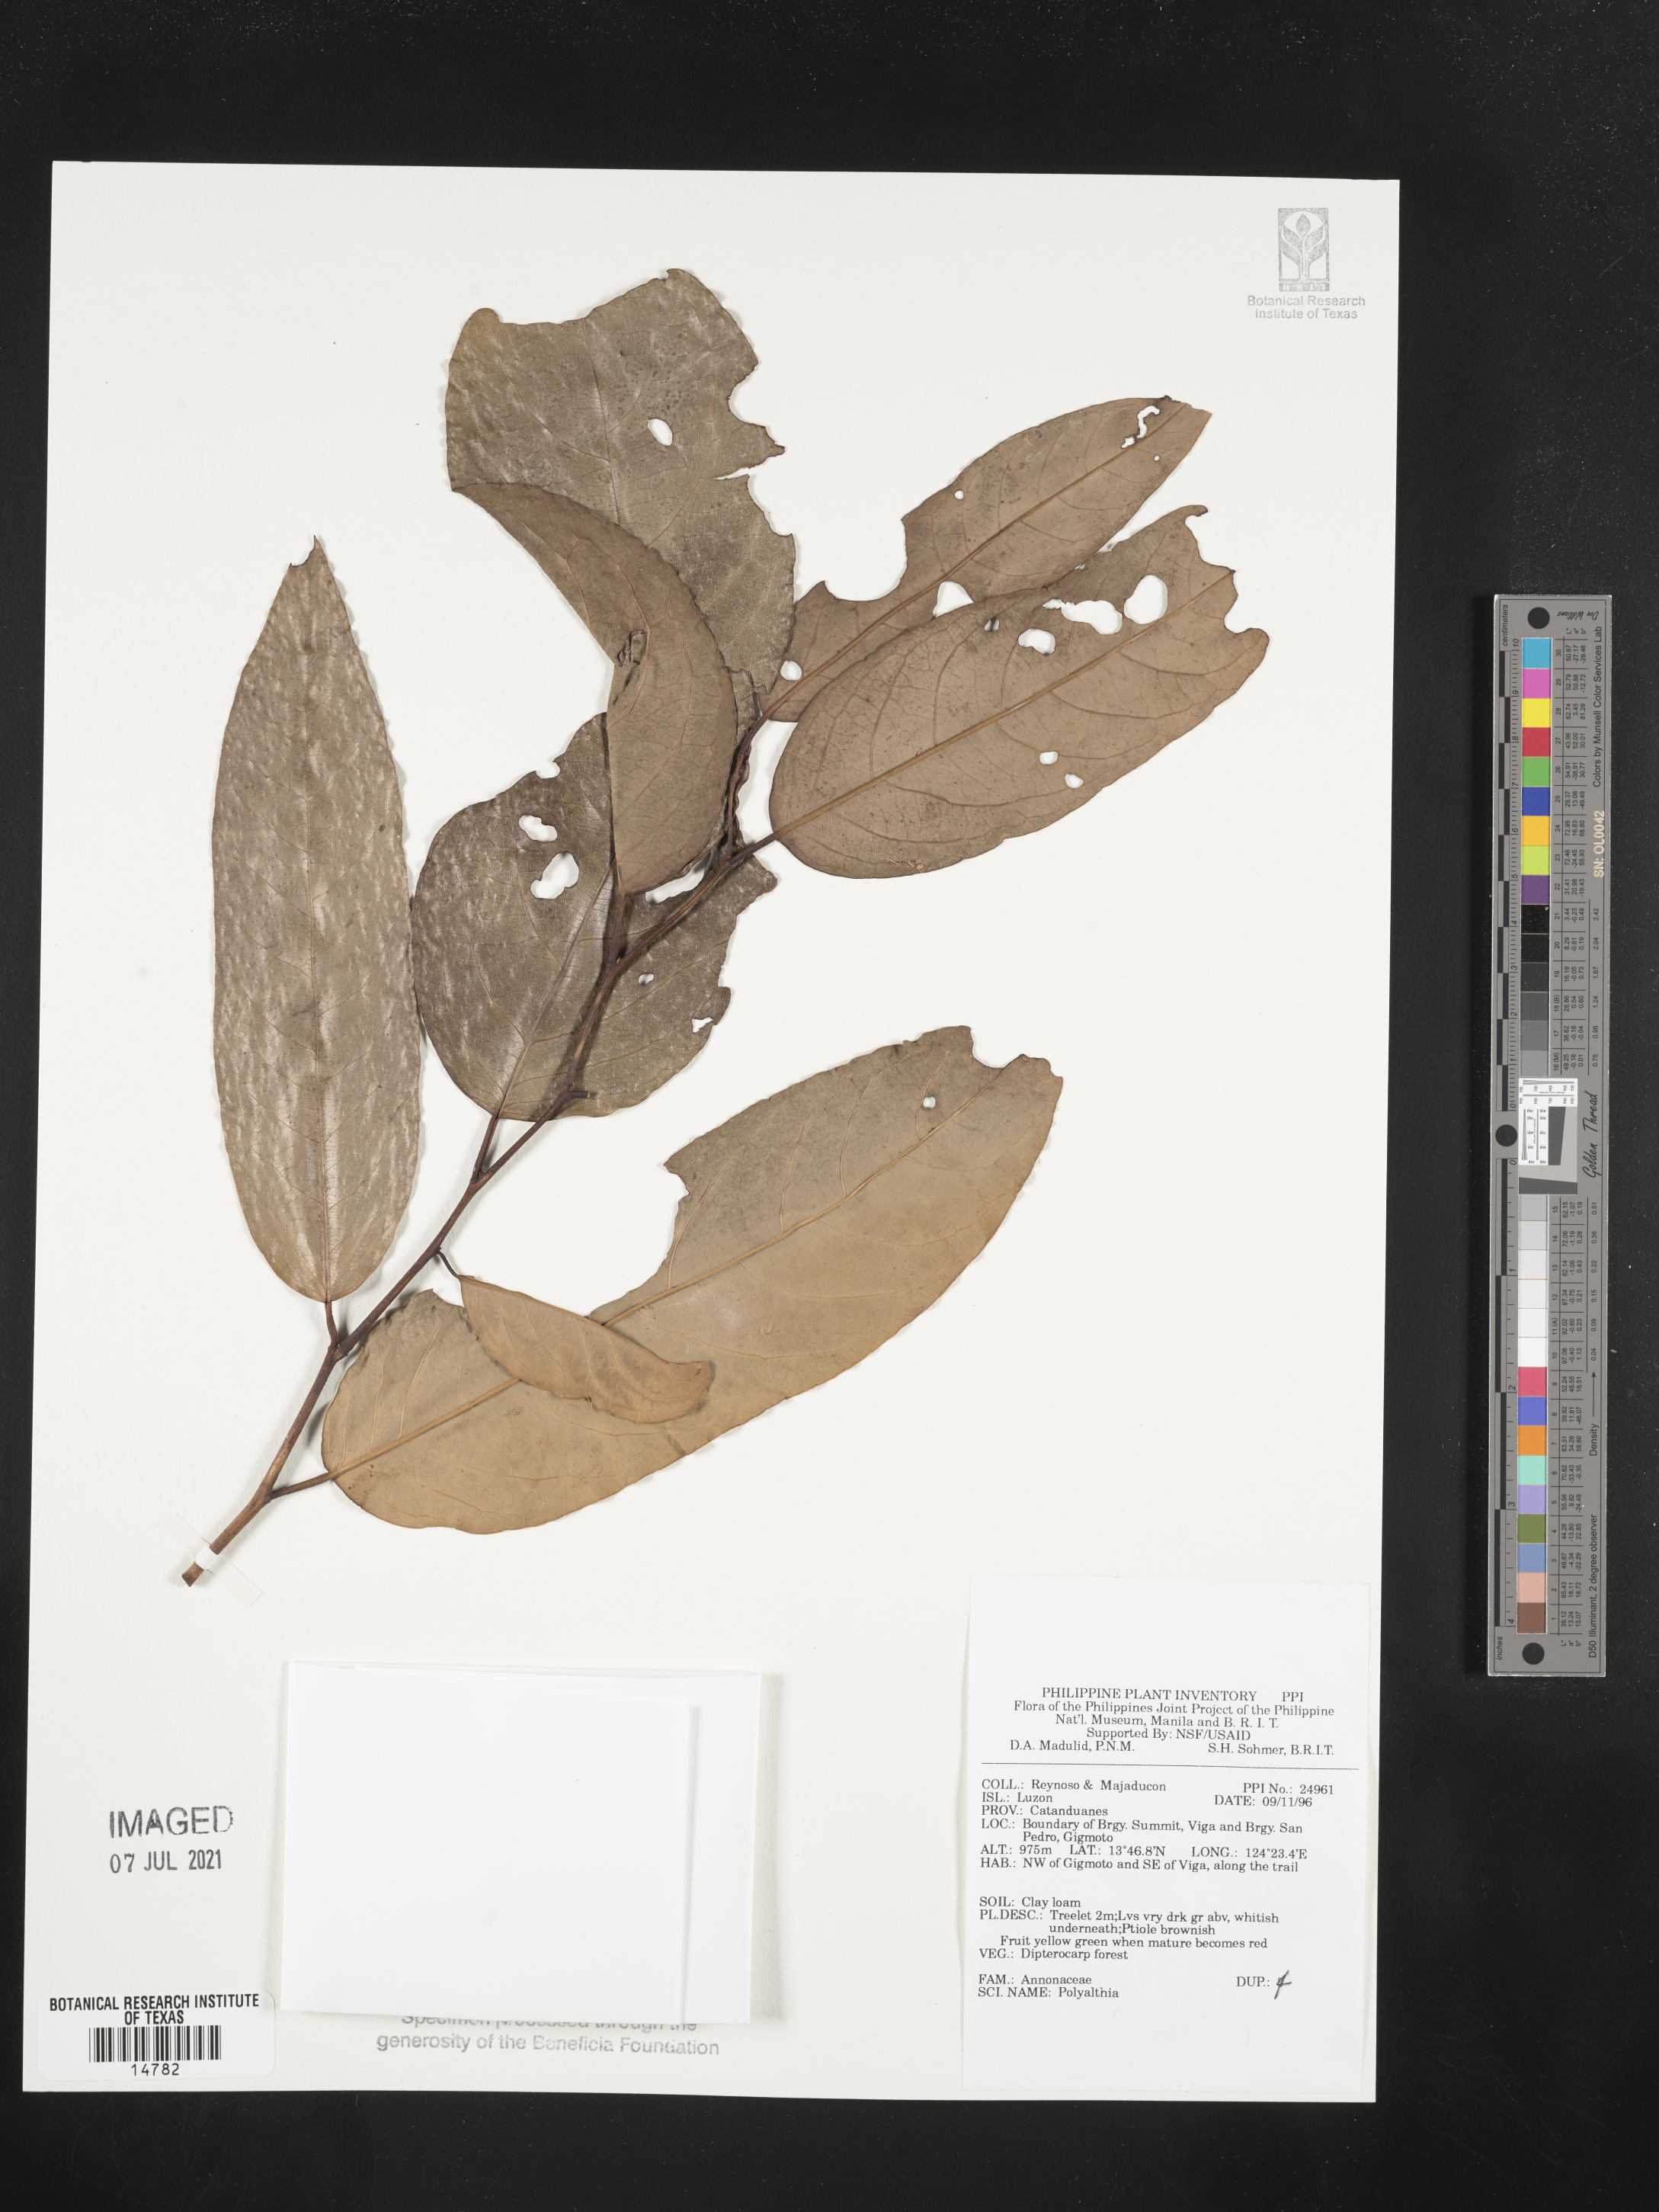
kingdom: Plantae
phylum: Tracheophyta
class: Magnoliopsida
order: Magnoliales
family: Annonaceae
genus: Polyalthia
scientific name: Polyalthia
